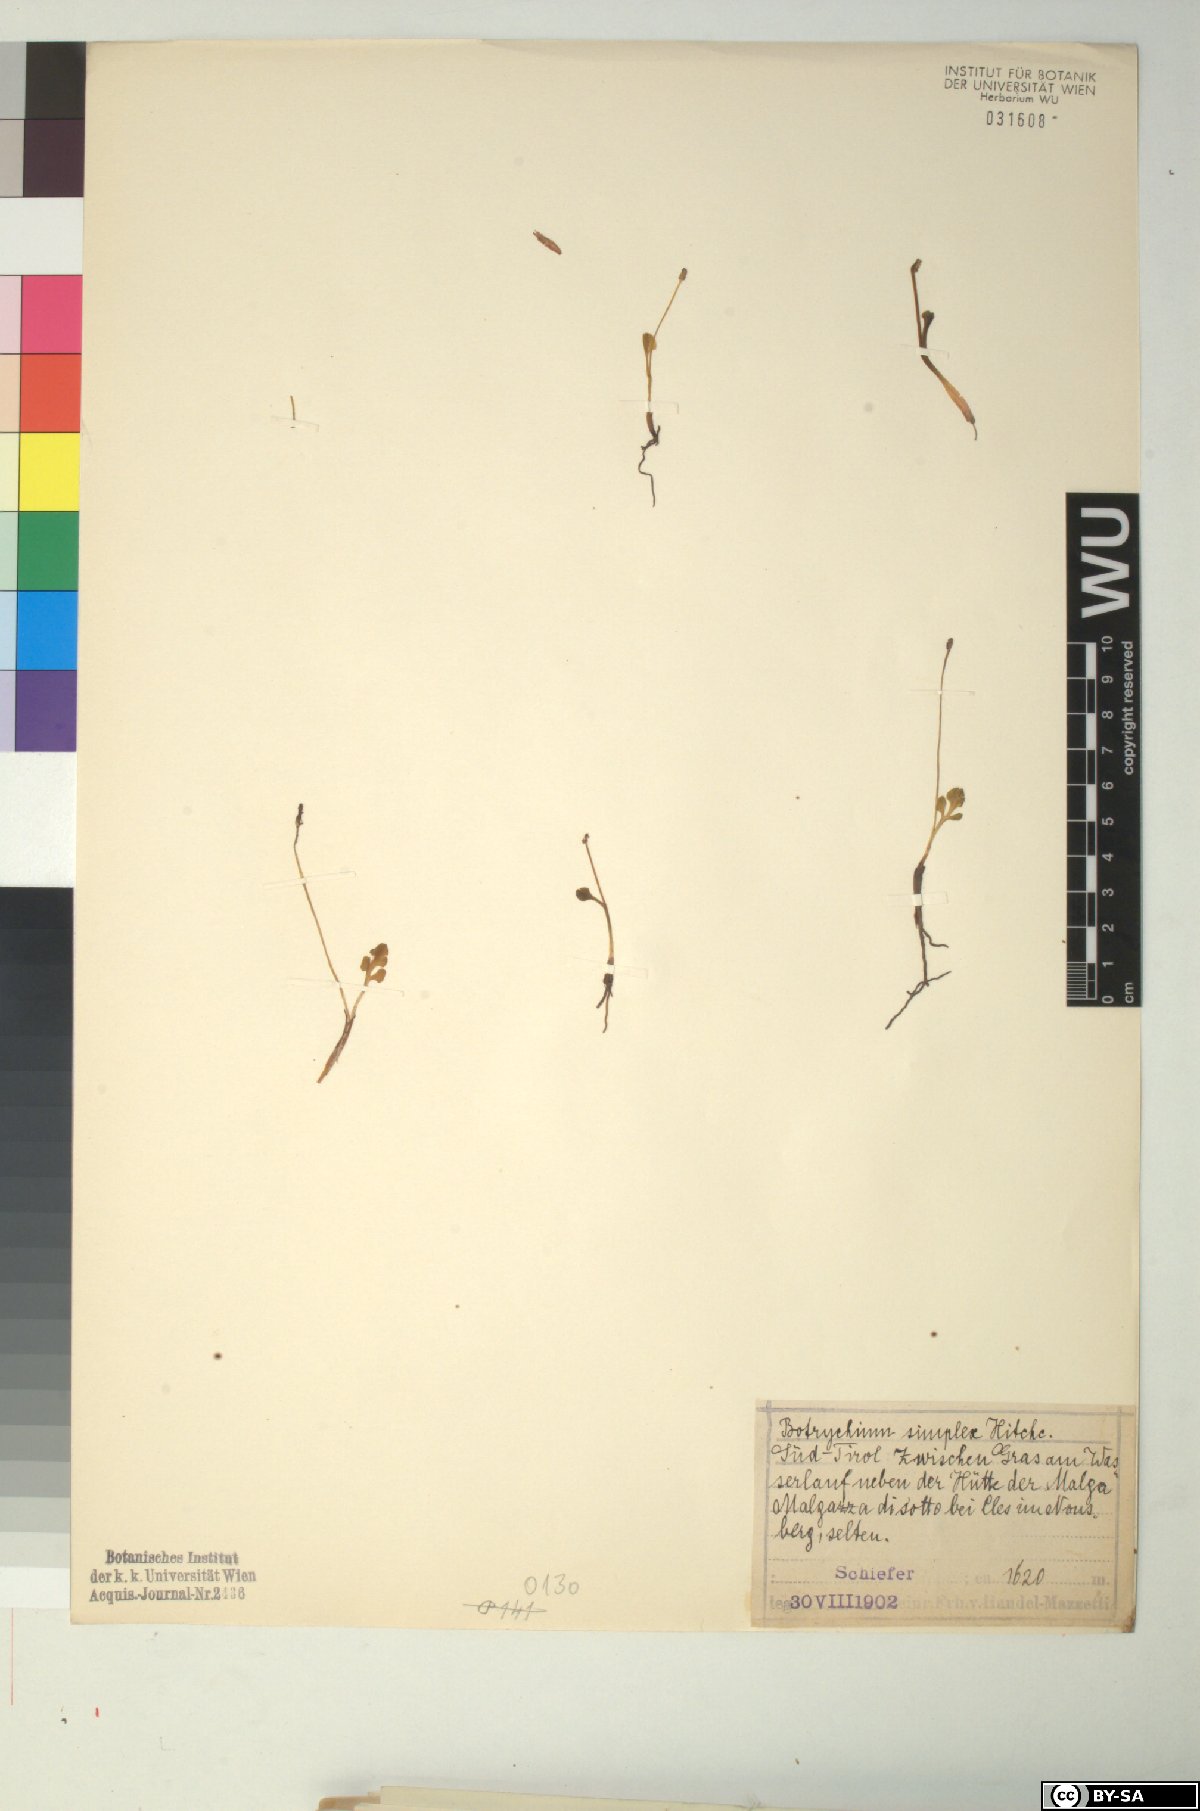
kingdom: Plantae
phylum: Tracheophyta
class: Polypodiopsida
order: Ophioglossales
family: Ophioglossaceae
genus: Botrychium
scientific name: Botrychium simplex
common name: Least moonwort
